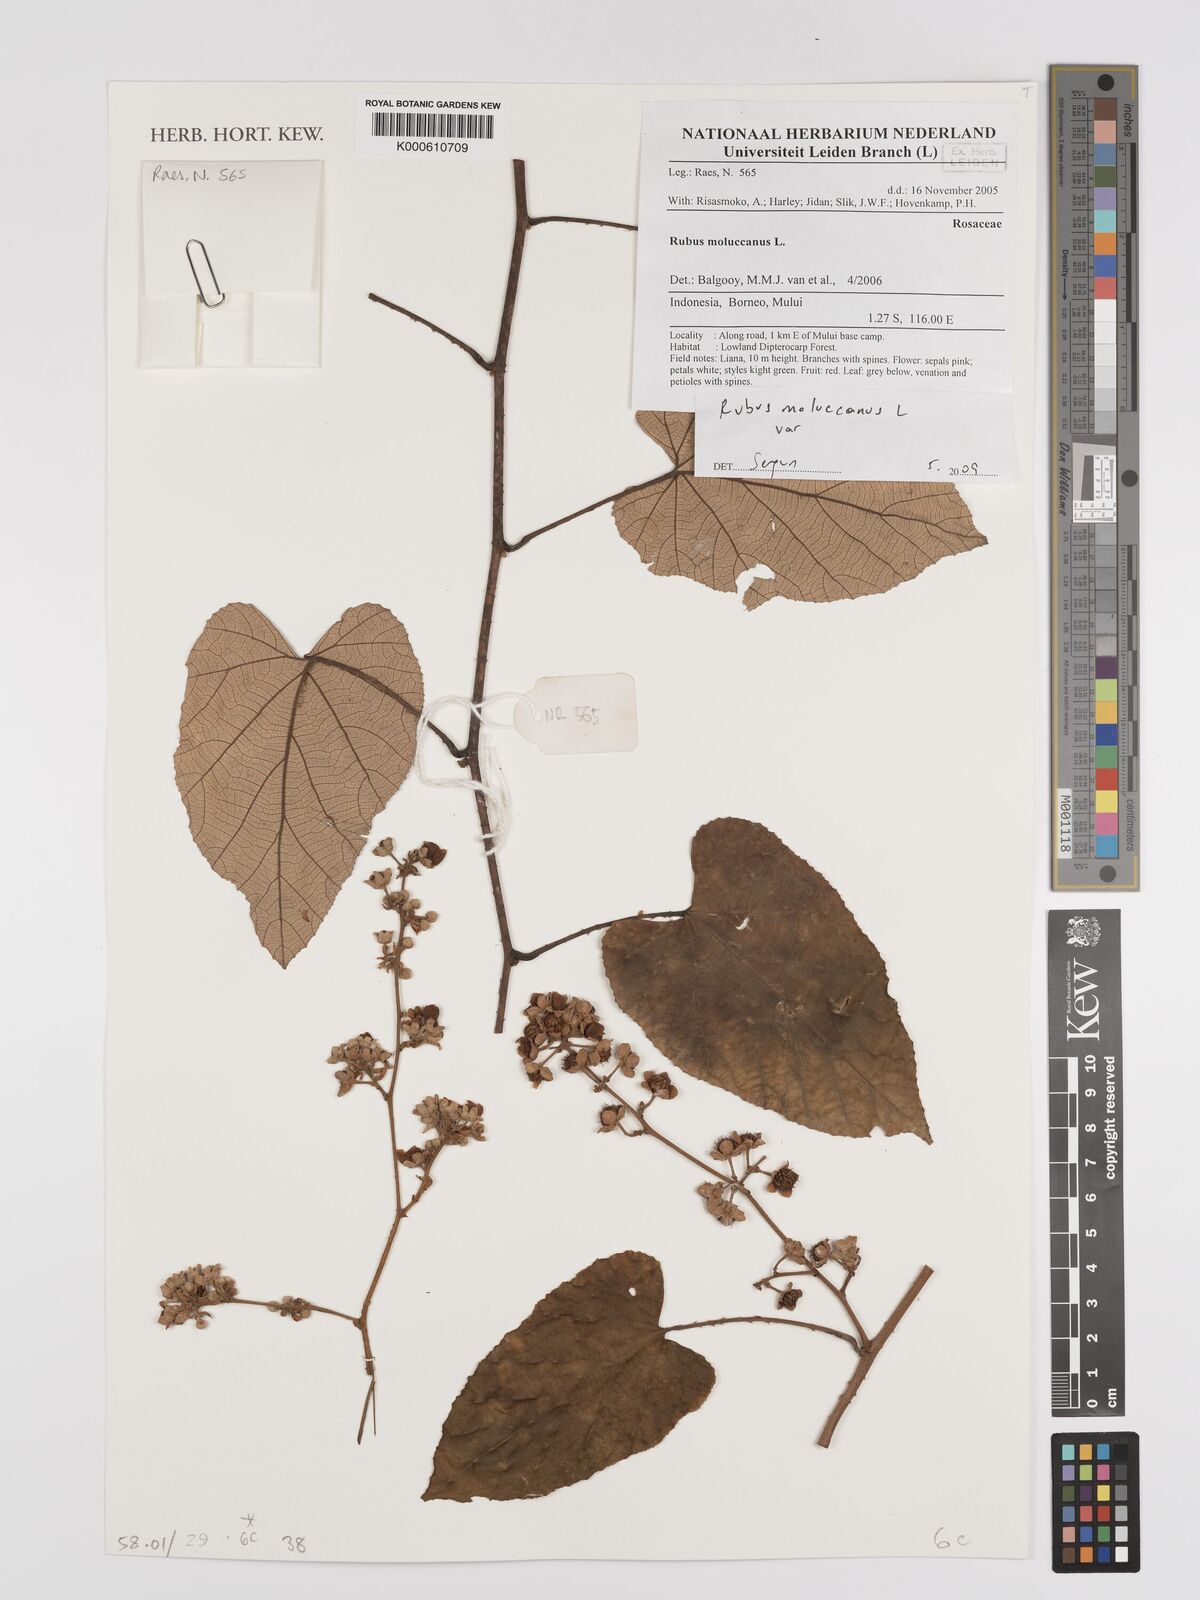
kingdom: Plantae
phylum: Tracheophyta
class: Magnoliopsida
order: Rosales
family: Rosaceae
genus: Rubus
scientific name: Rubus moluccanus
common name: Wild raspberry
